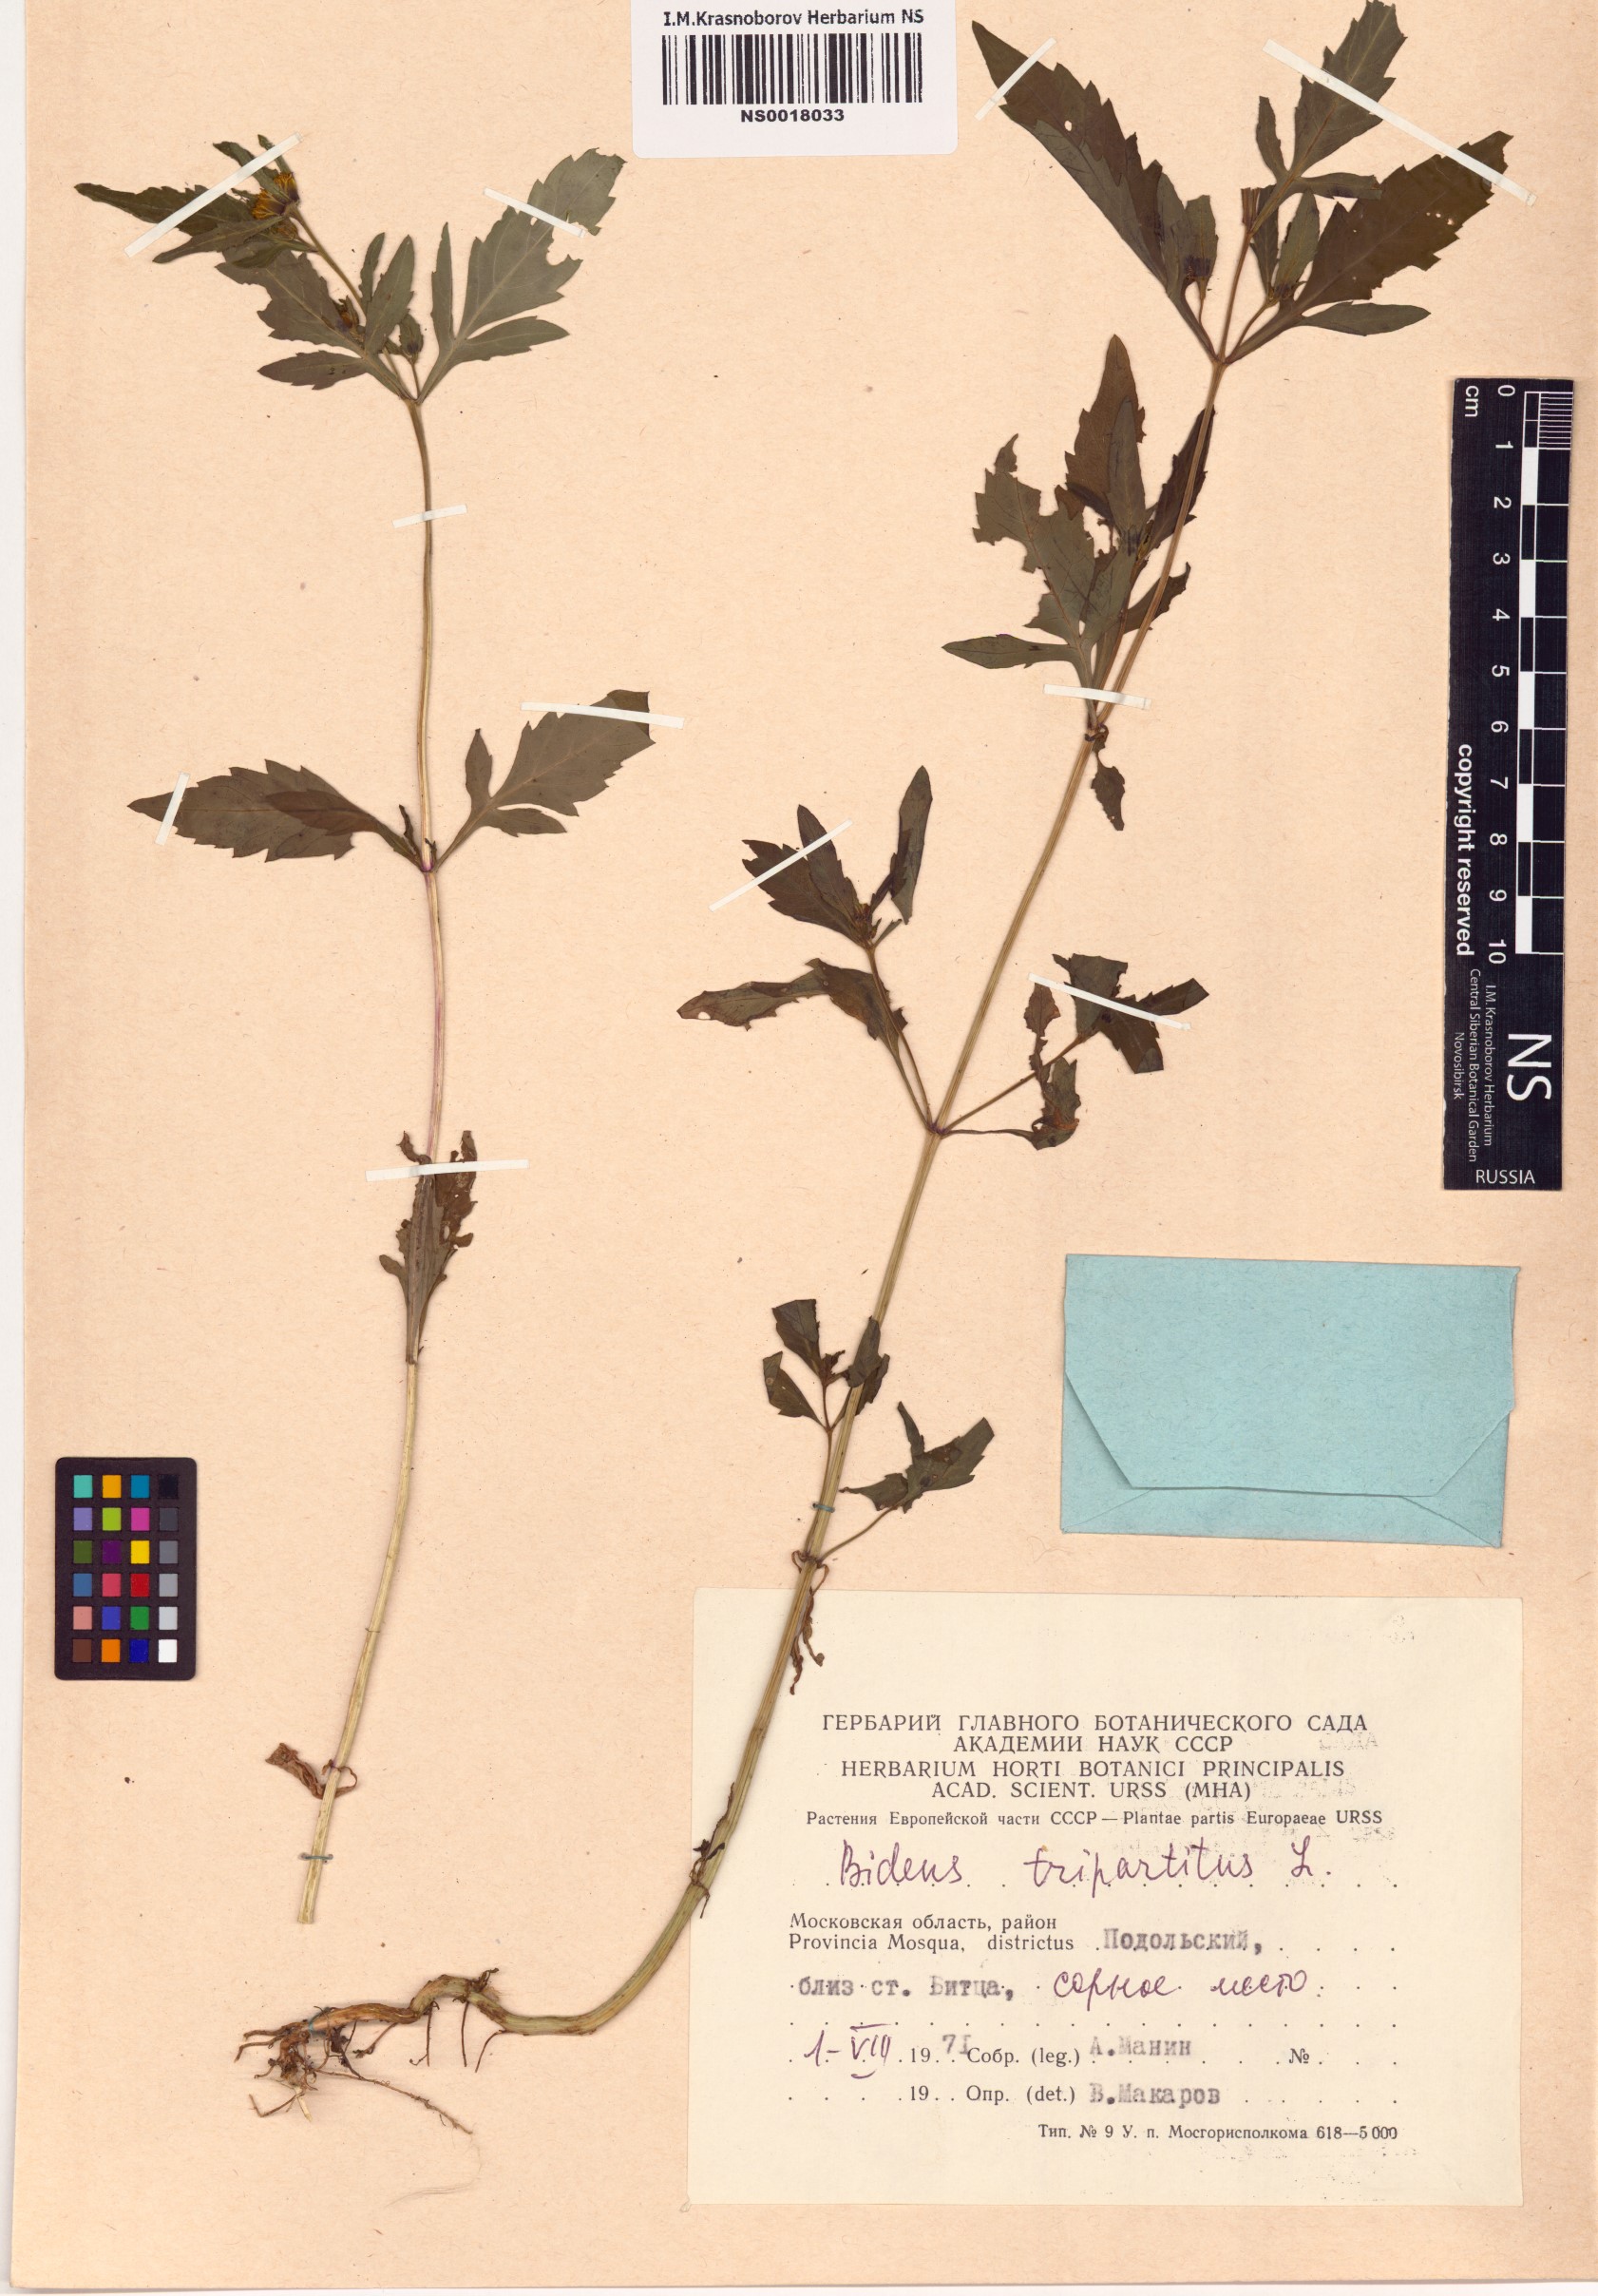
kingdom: Plantae
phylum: Tracheophyta
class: Magnoliopsida
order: Asterales
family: Asteraceae
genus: Bidens
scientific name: Bidens tripartita
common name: Trifid bur-marigold
